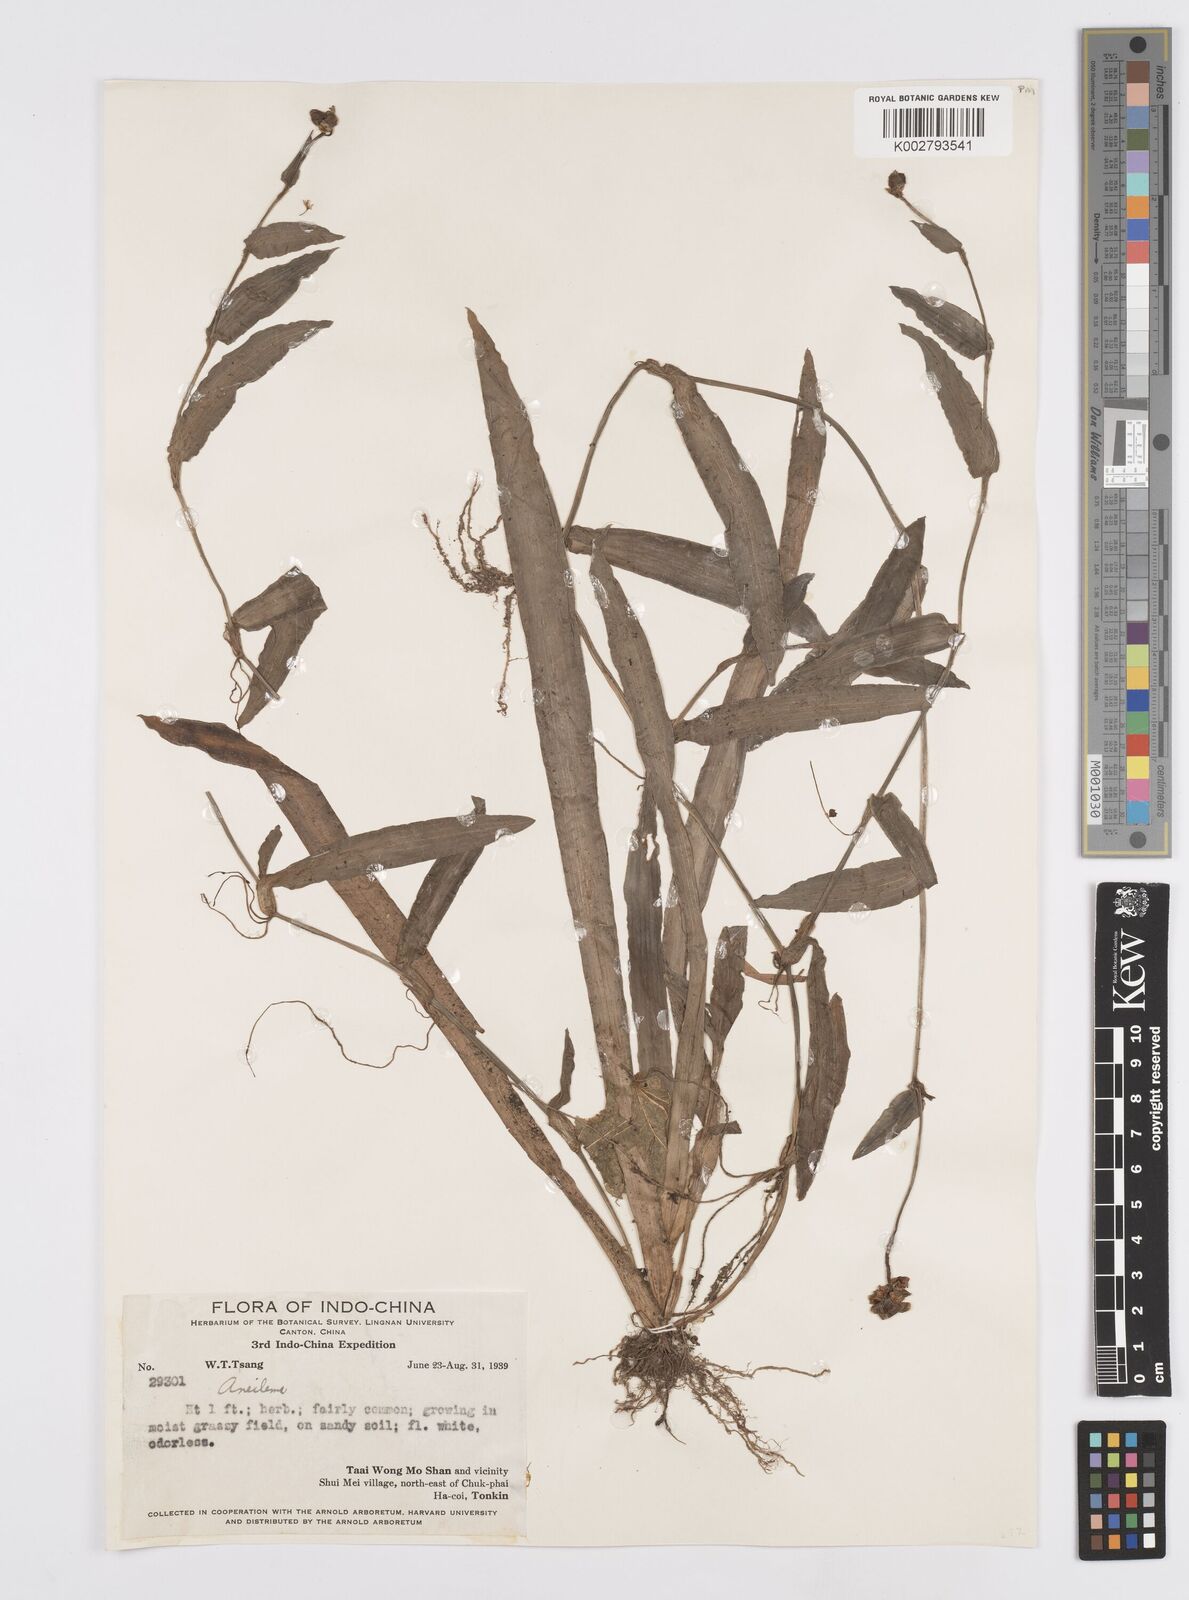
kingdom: Plantae
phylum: Tracheophyta
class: Liliopsida
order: Commelinales
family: Commelinaceae
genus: Murdannia
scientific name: Murdannia
